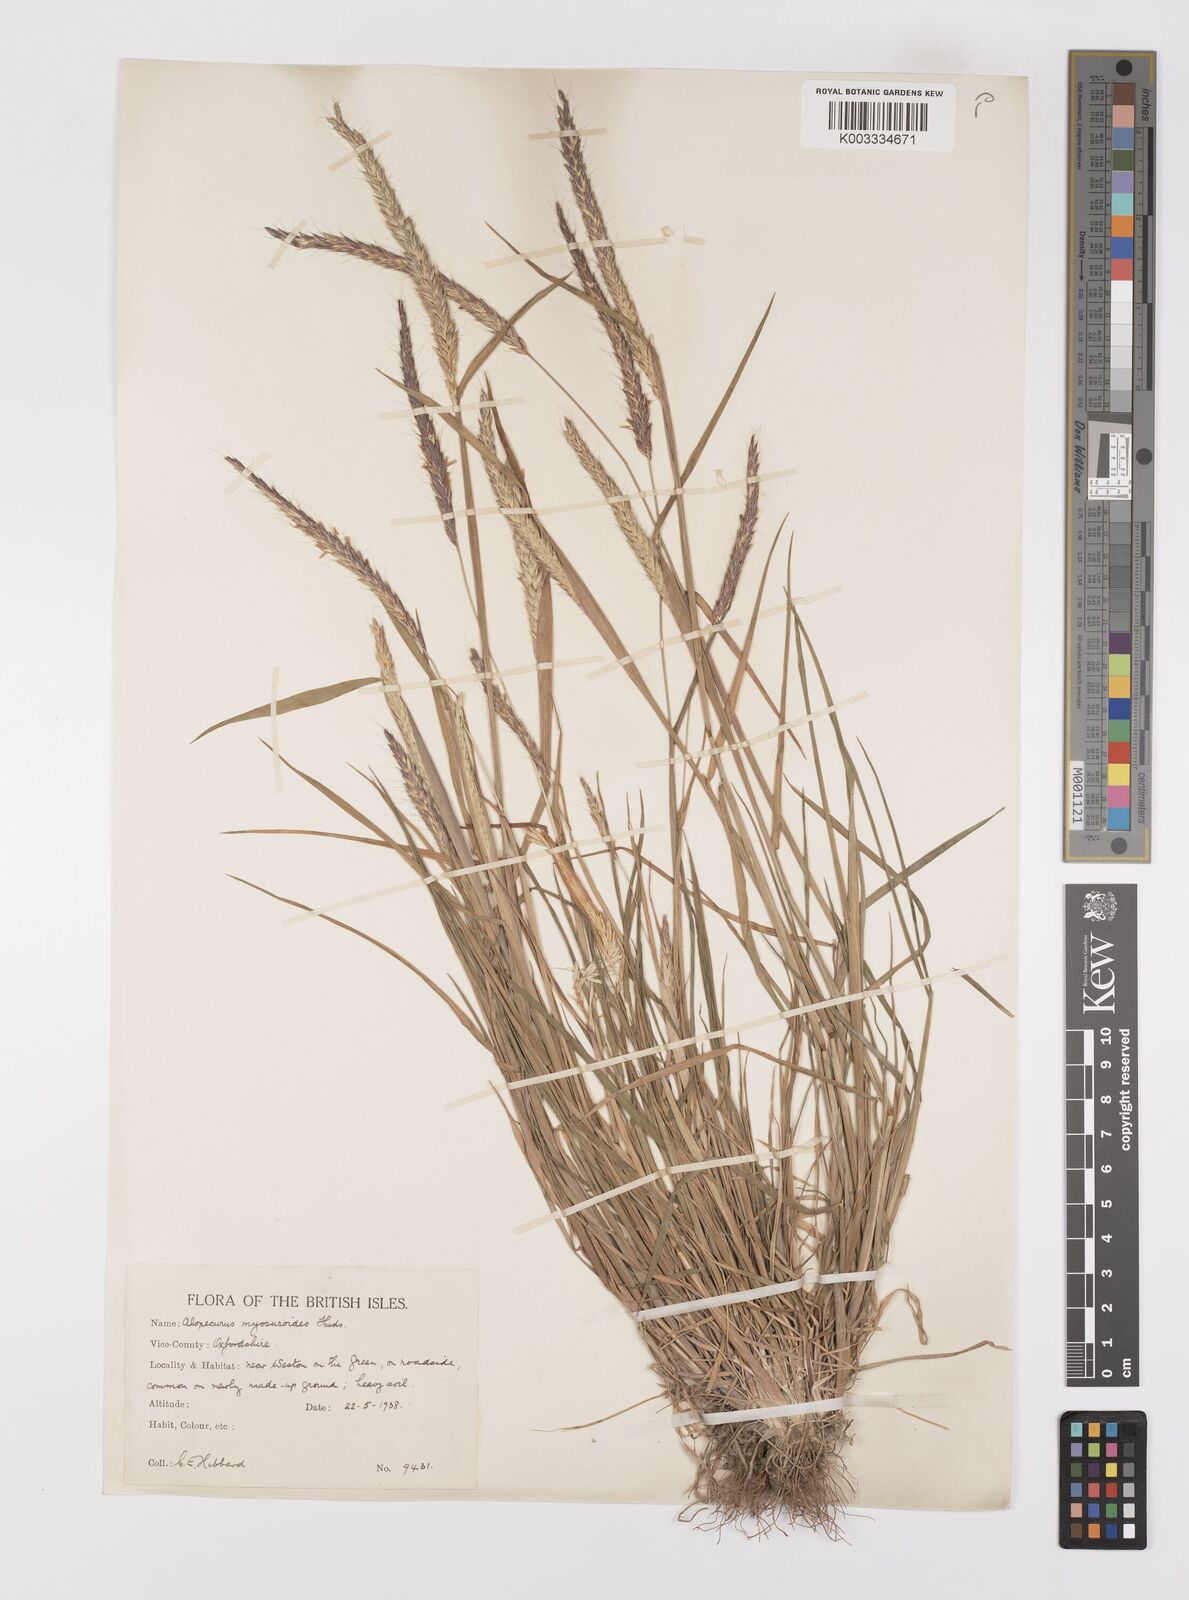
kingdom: Plantae
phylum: Tracheophyta
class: Liliopsida
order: Poales
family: Poaceae
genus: Alopecurus
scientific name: Alopecurus myosuroides
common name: Black-grass
